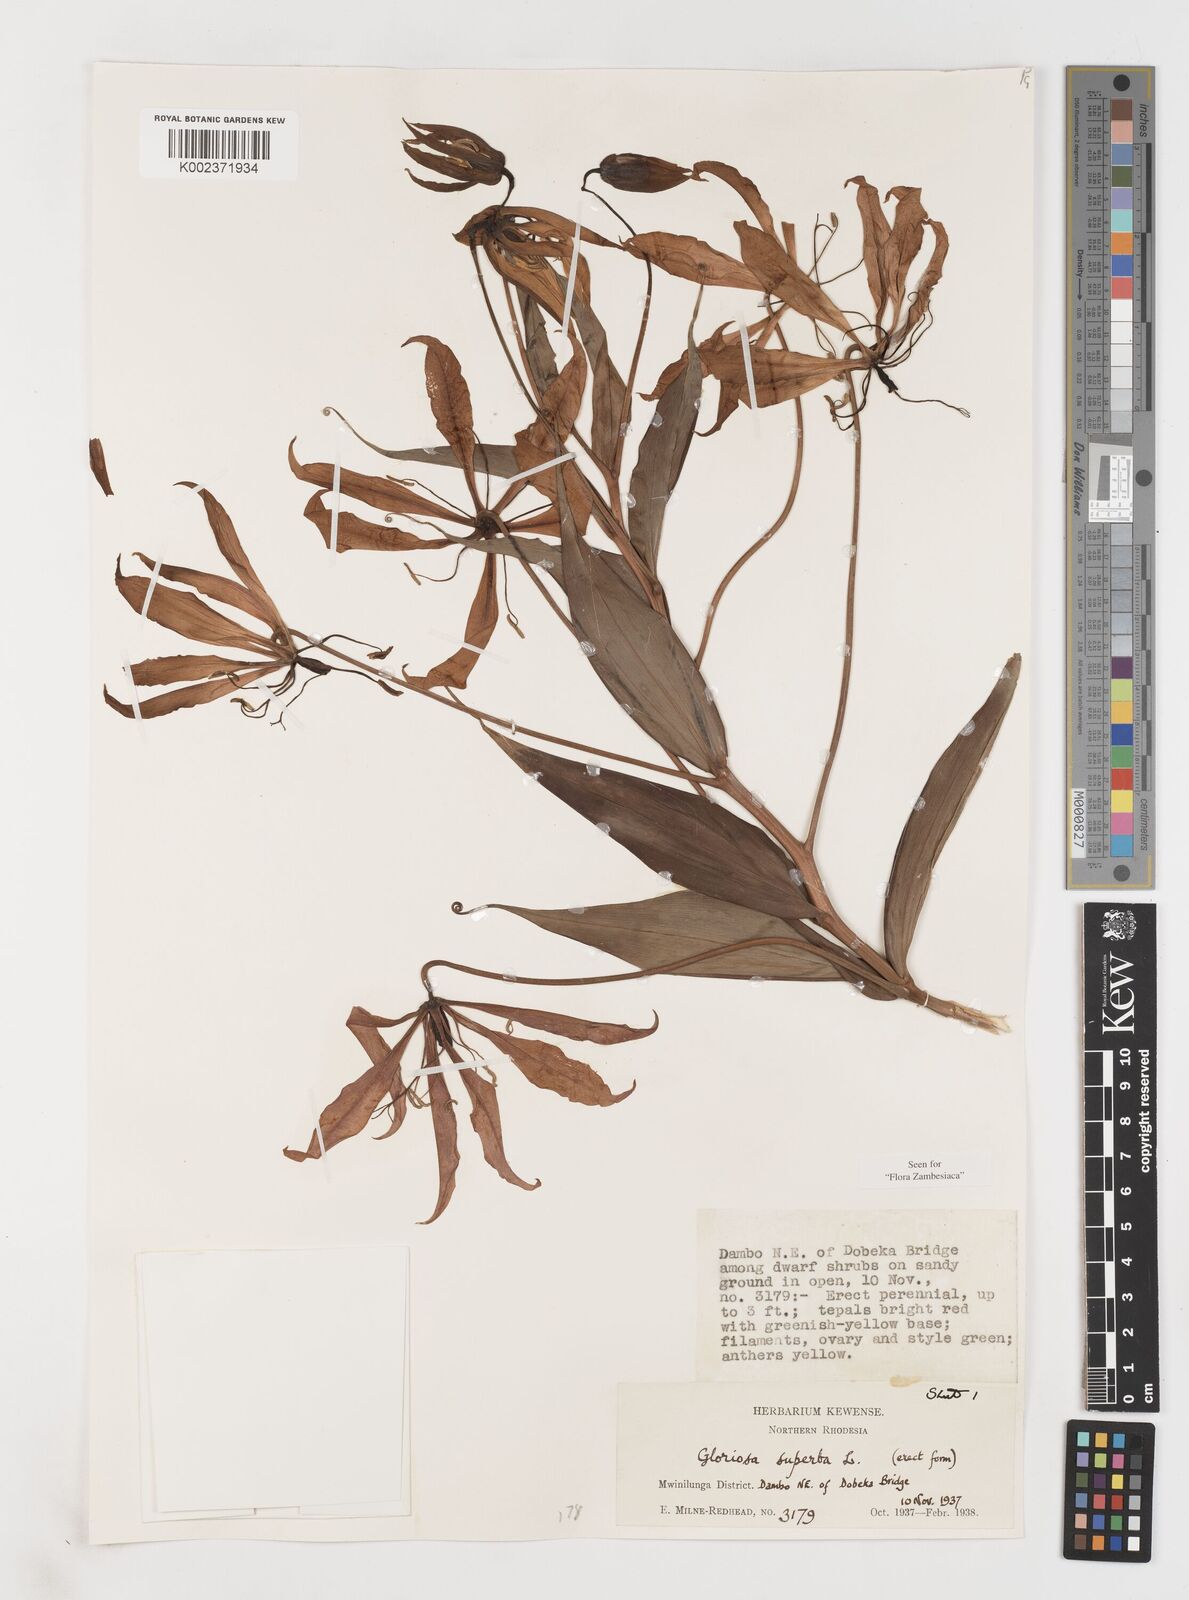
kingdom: Plantae
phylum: Tracheophyta
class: Liliopsida
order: Liliales
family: Colchicaceae
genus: Gloriosa
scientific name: Gloriosa simplex
